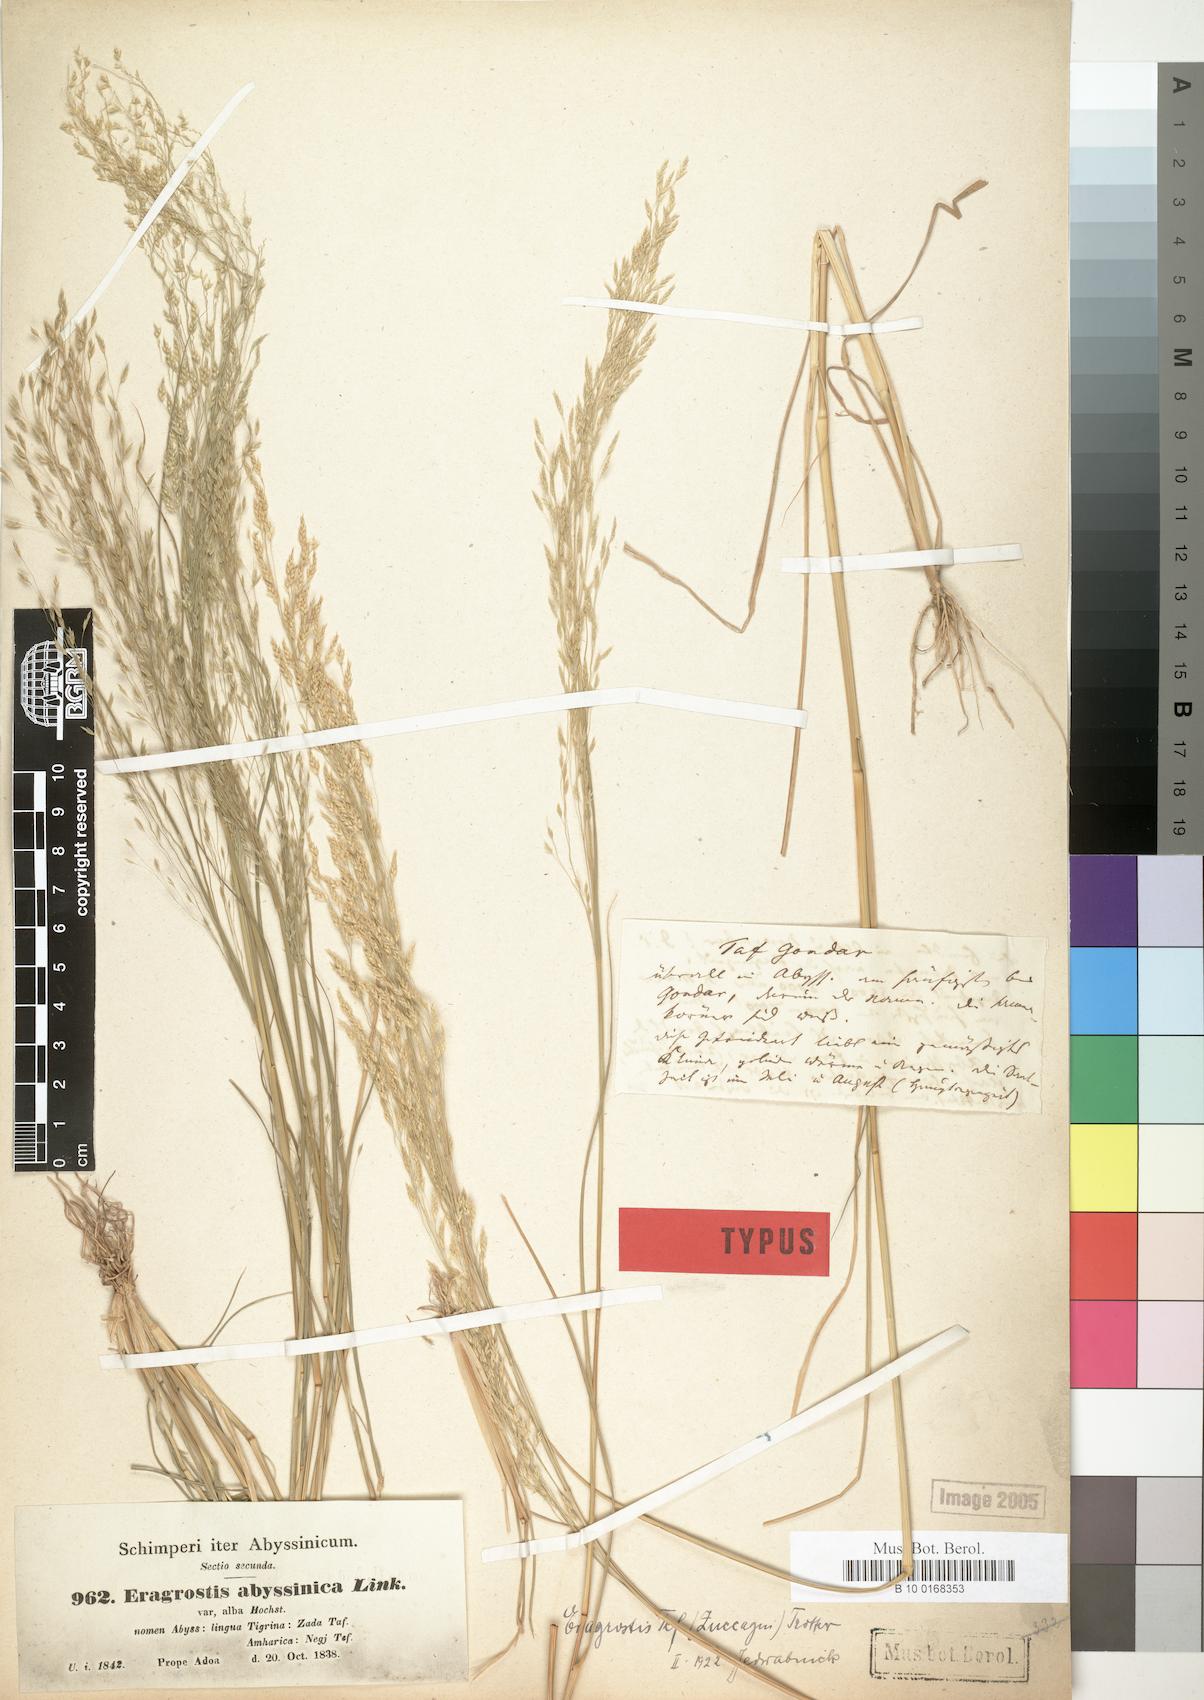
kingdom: Plantae
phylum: Tracheophyta
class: Liliopsida
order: Poales
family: Poaceae
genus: Eragrostis
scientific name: Eragrostis tef
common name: Teff
